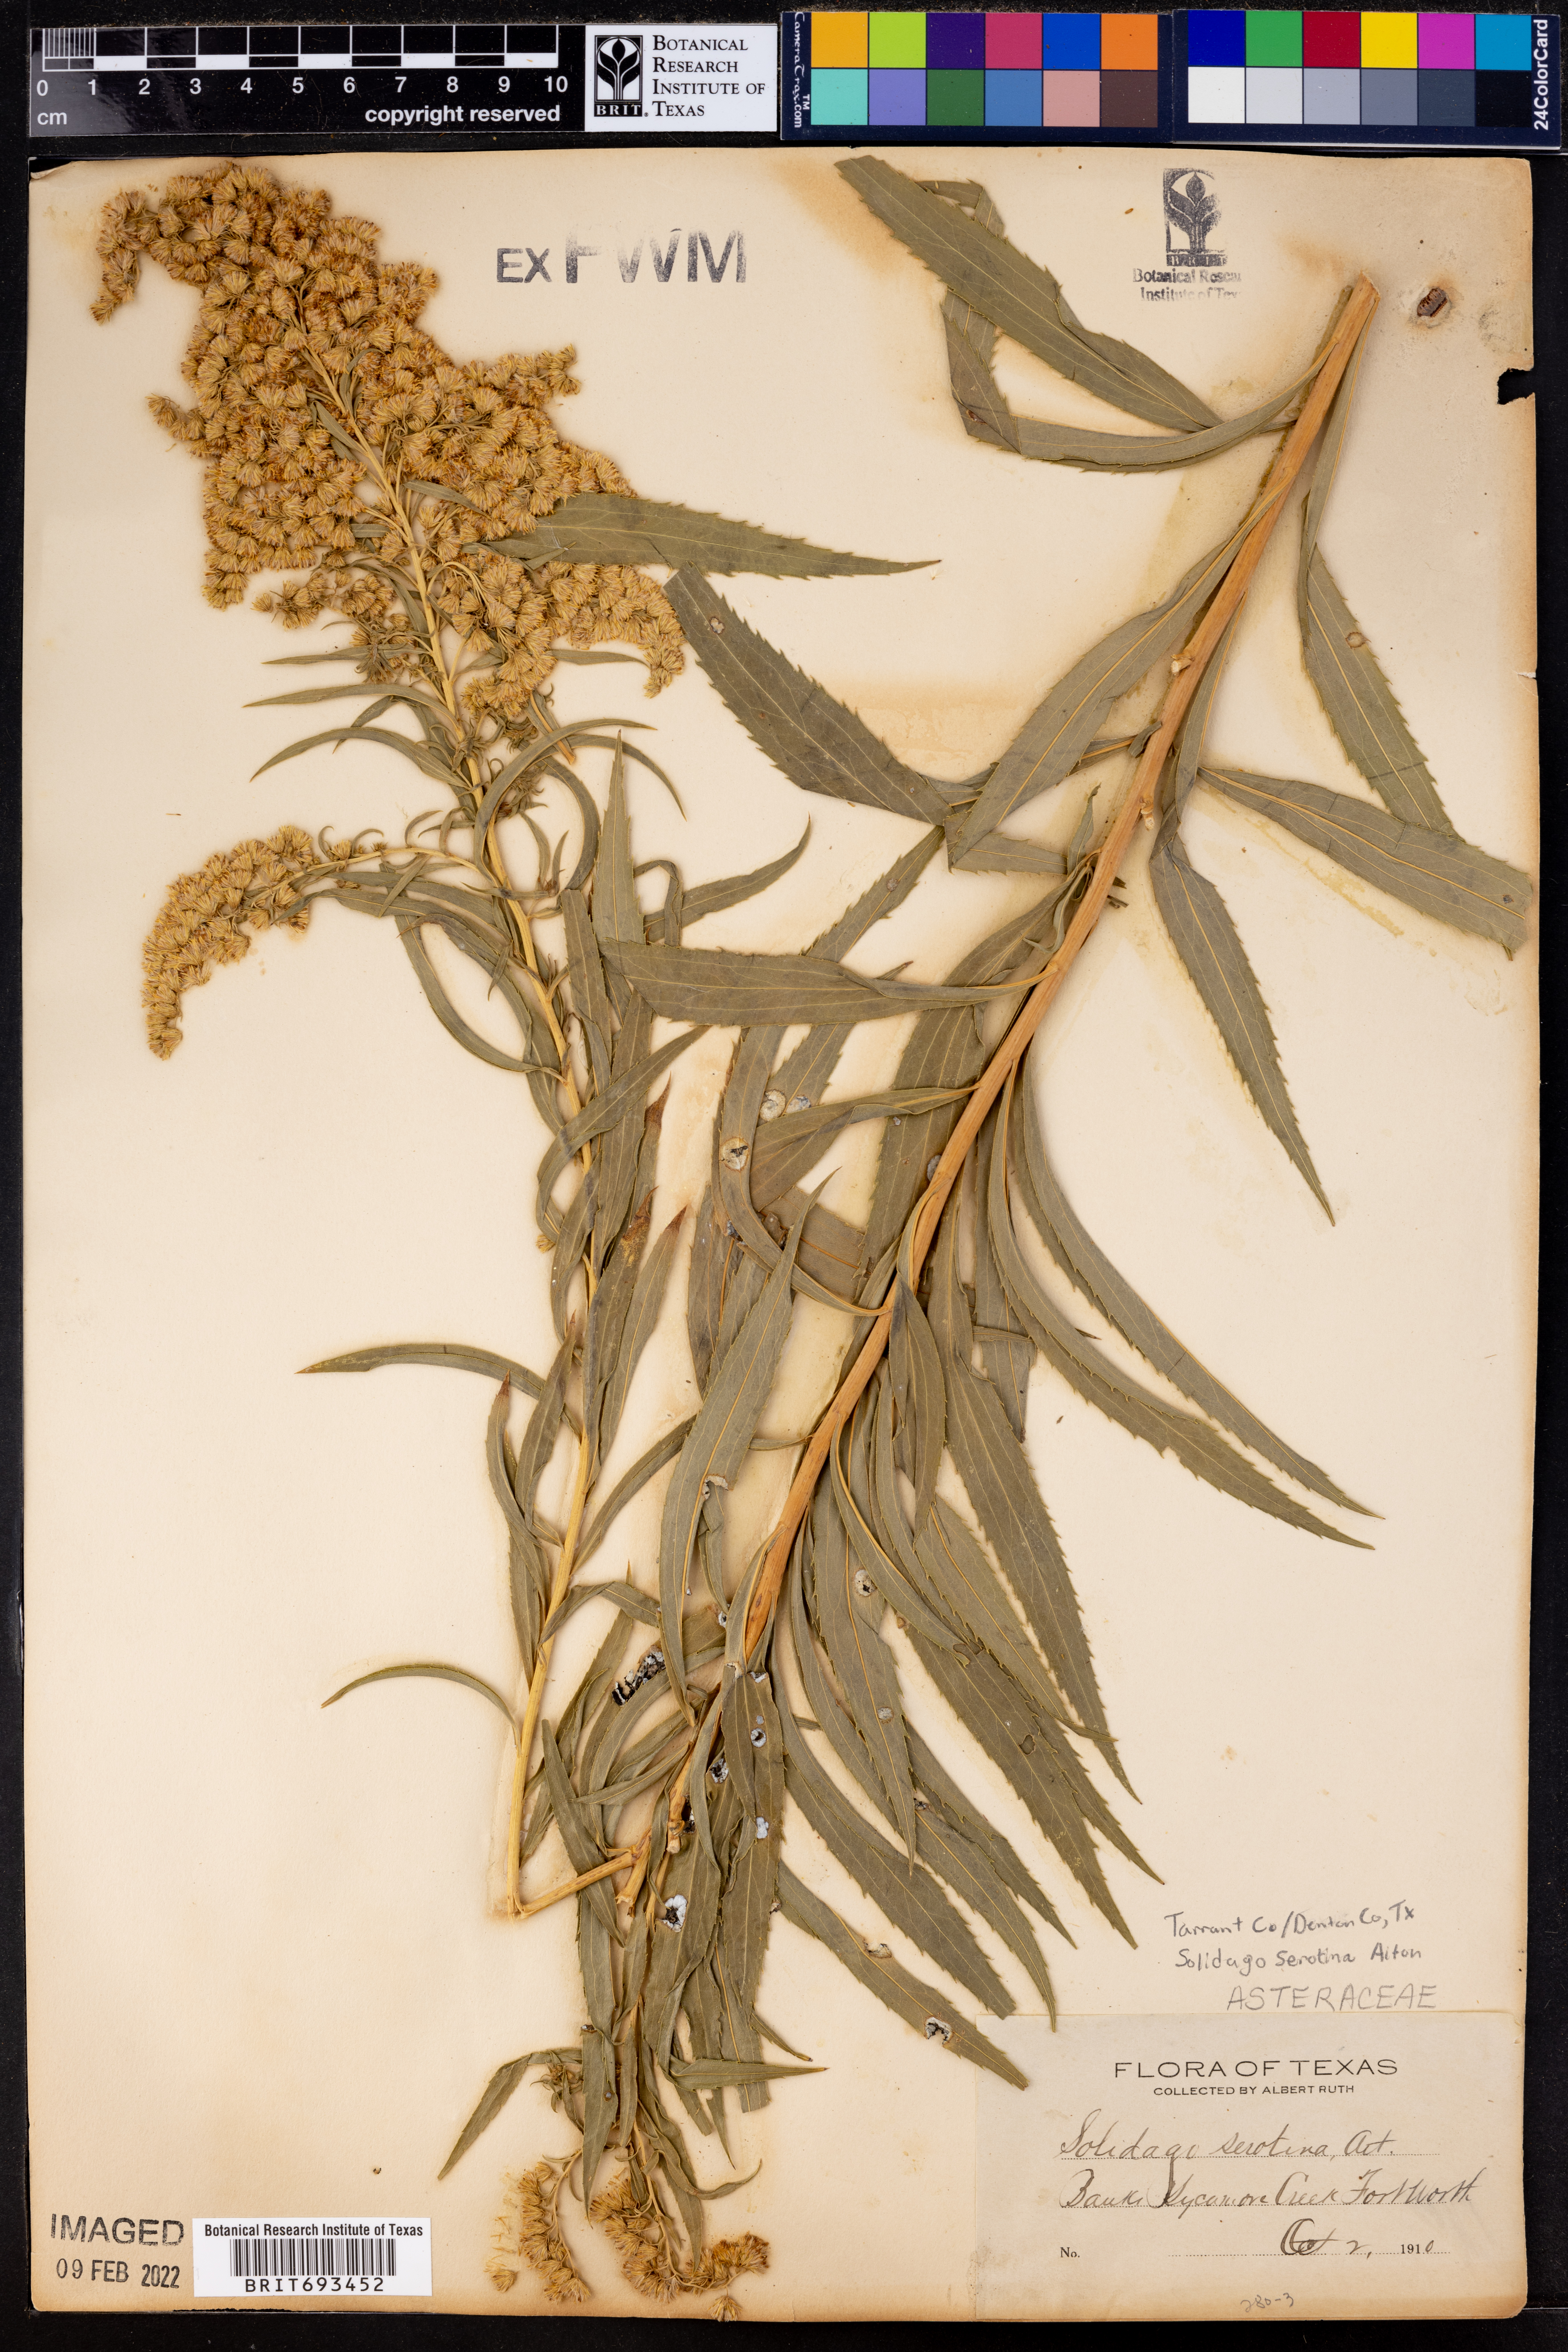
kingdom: Plantae
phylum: Tracheophyta
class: Magnoliopsida
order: Asterales
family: Asteraceae
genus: Solidago
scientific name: Solidago gigantea
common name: Giant goldenrod
